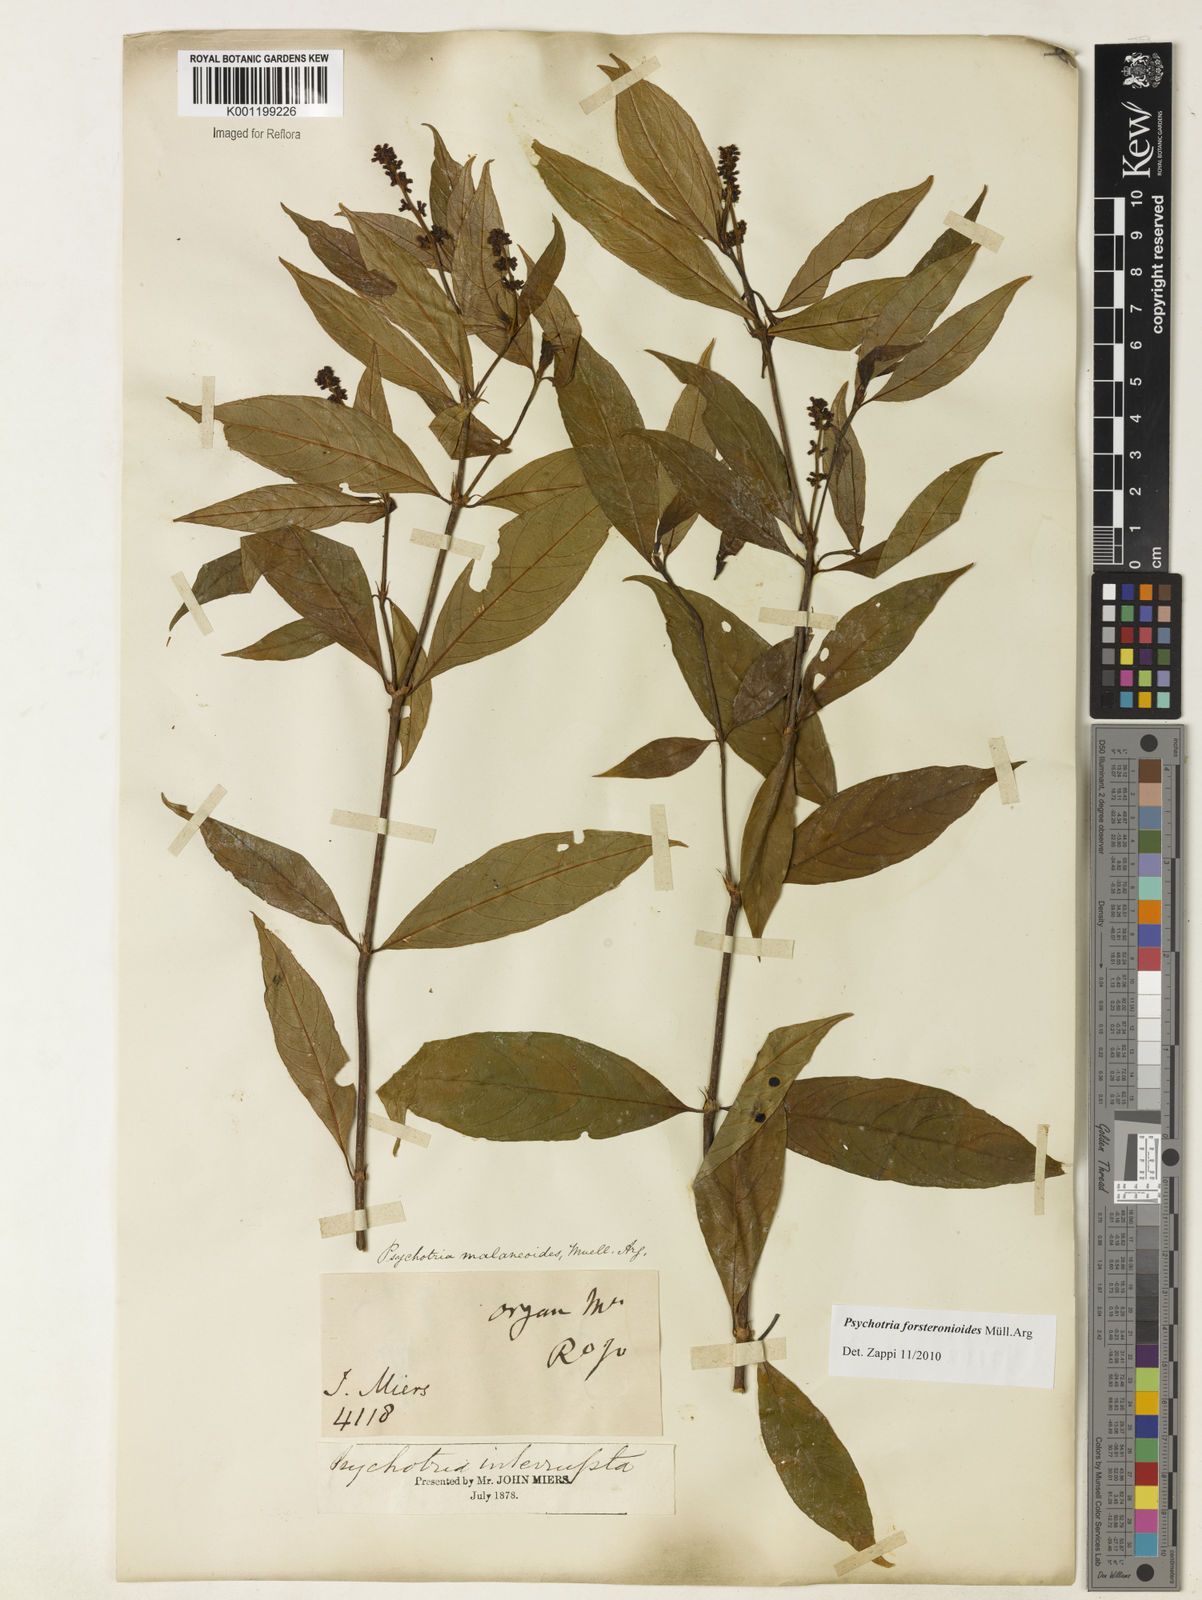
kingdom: Plantae
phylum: Tracheophyta
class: Magnoliopsida
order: Gentianales
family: Rubiaceae
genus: Psychotria
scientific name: Psychotria
